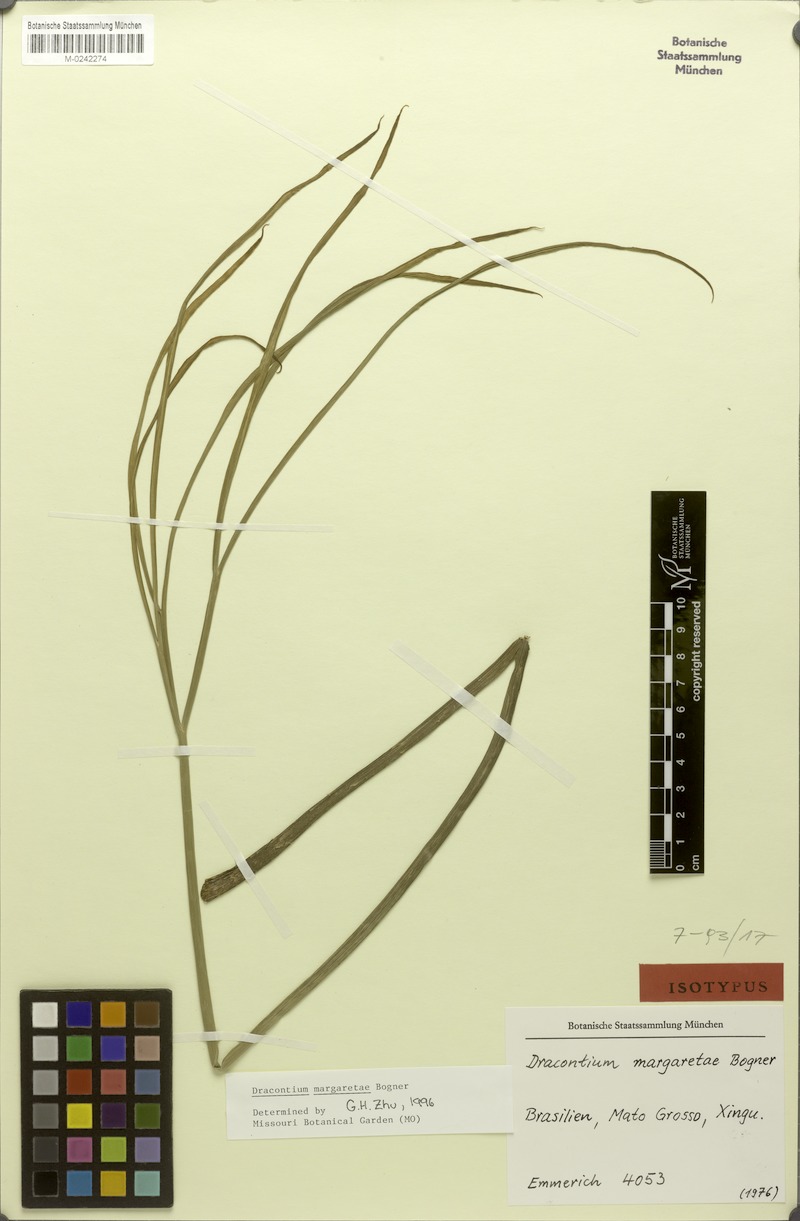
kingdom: Plantae
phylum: Tracheophyta
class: Liliopsida
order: Alismatales
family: Araceae
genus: Dracontium
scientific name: Dracontium margaretae
